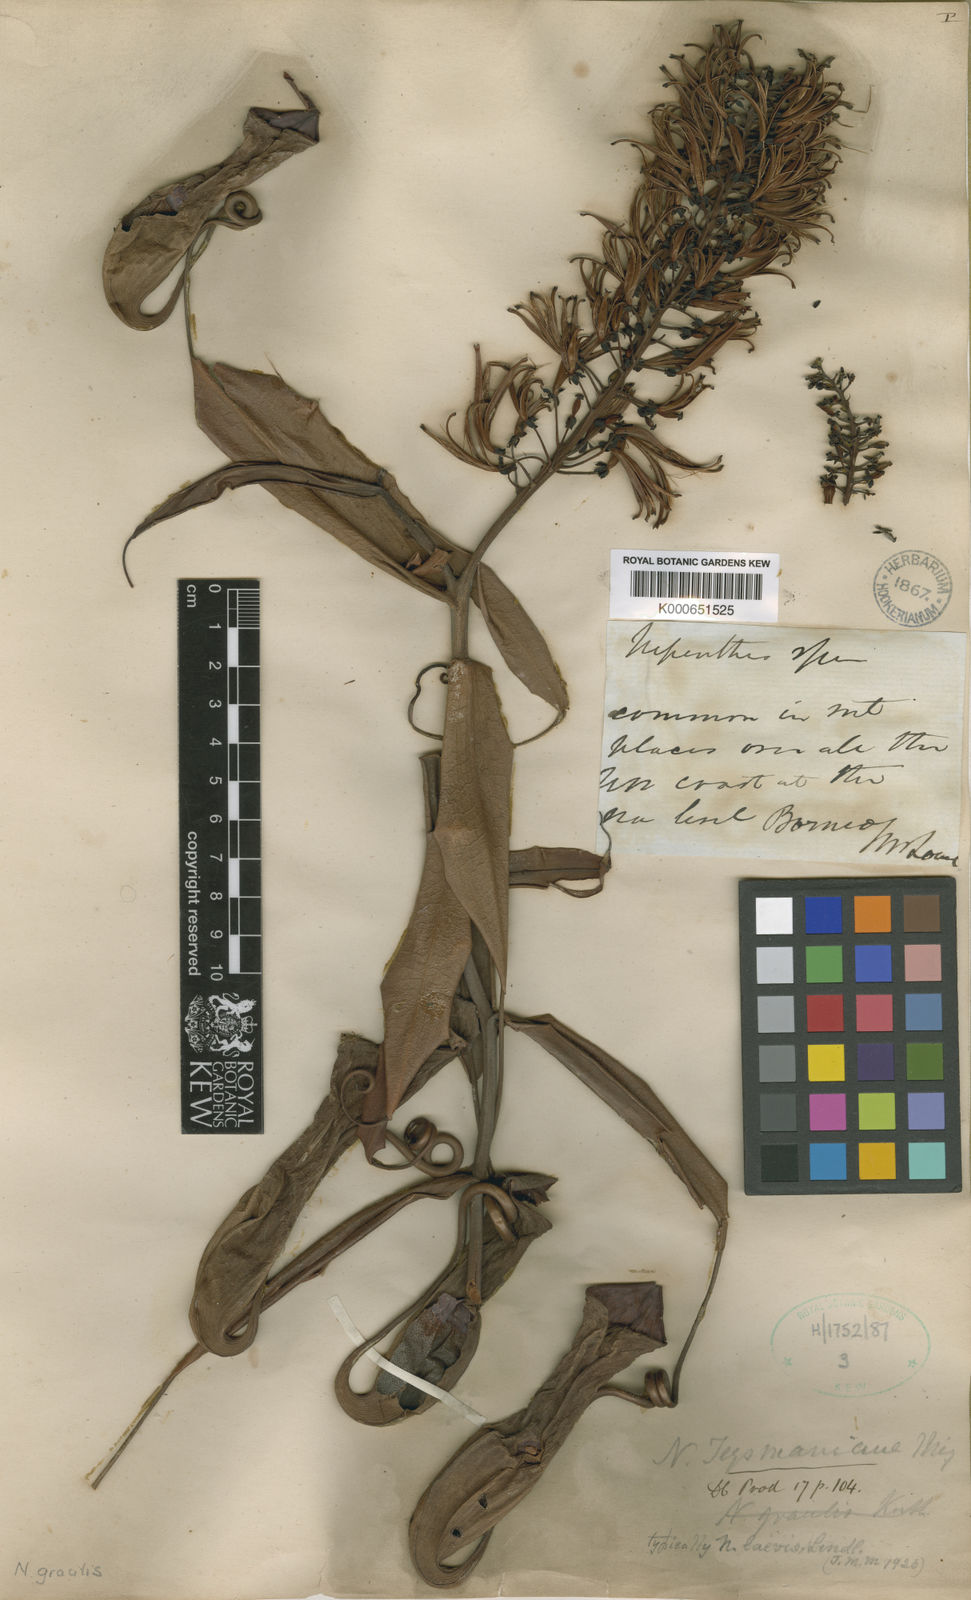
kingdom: Plantae
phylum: Tracheophyta
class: Magnoliopsida
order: Caryophyllales
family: Nepenthaceae
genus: Nepenthes
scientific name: Nepenthes gracilis
